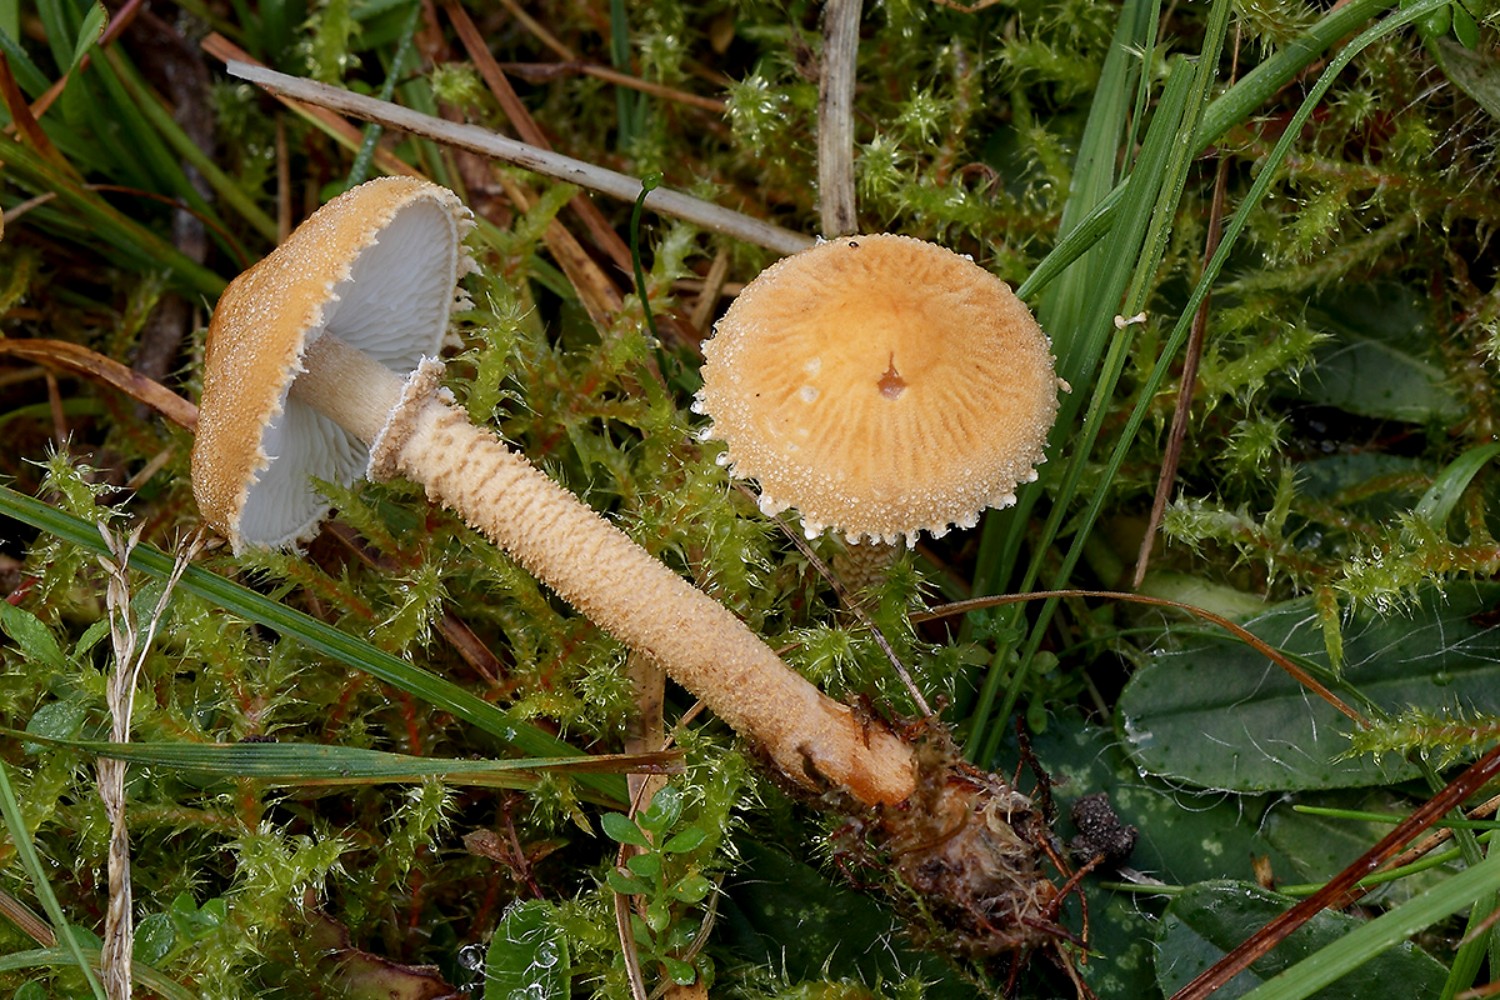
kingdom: Fungi
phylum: Basidiomycota
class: Agaricomycetes
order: Agaricales
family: Tricholomataceae
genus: Cystoderma
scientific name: Cystoderma amianthinum
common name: okkergul grynhat
